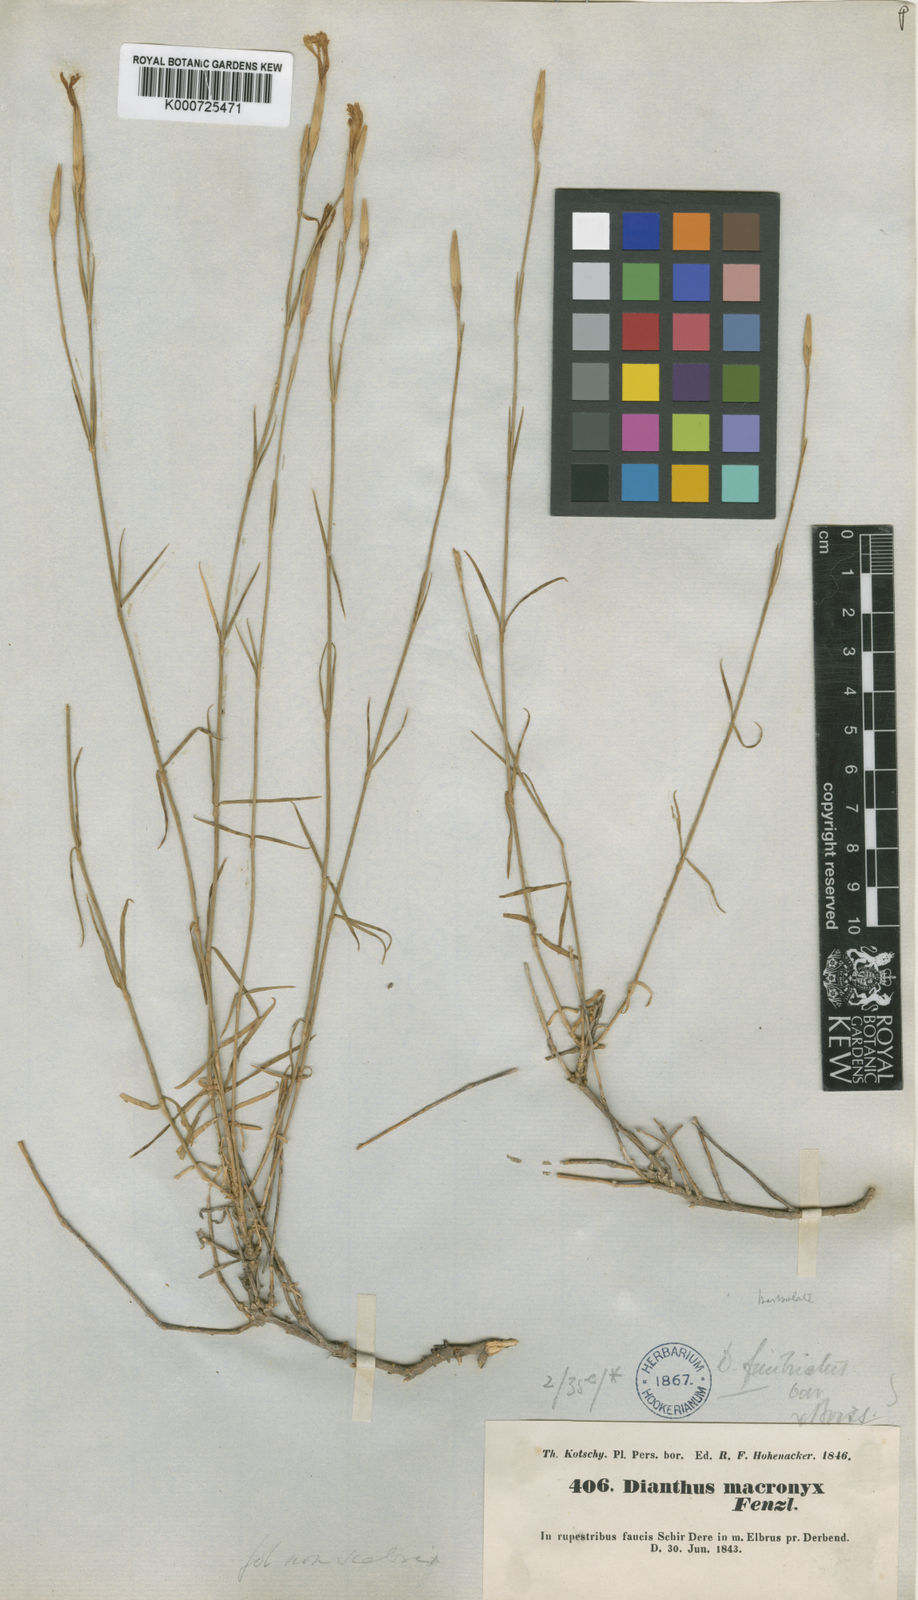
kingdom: Plantae
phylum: Tracheophyta
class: Magnoliopsida
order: Caryophyllales
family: Caryophyllaceae
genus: Dianthus
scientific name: Dianthus orientalis
